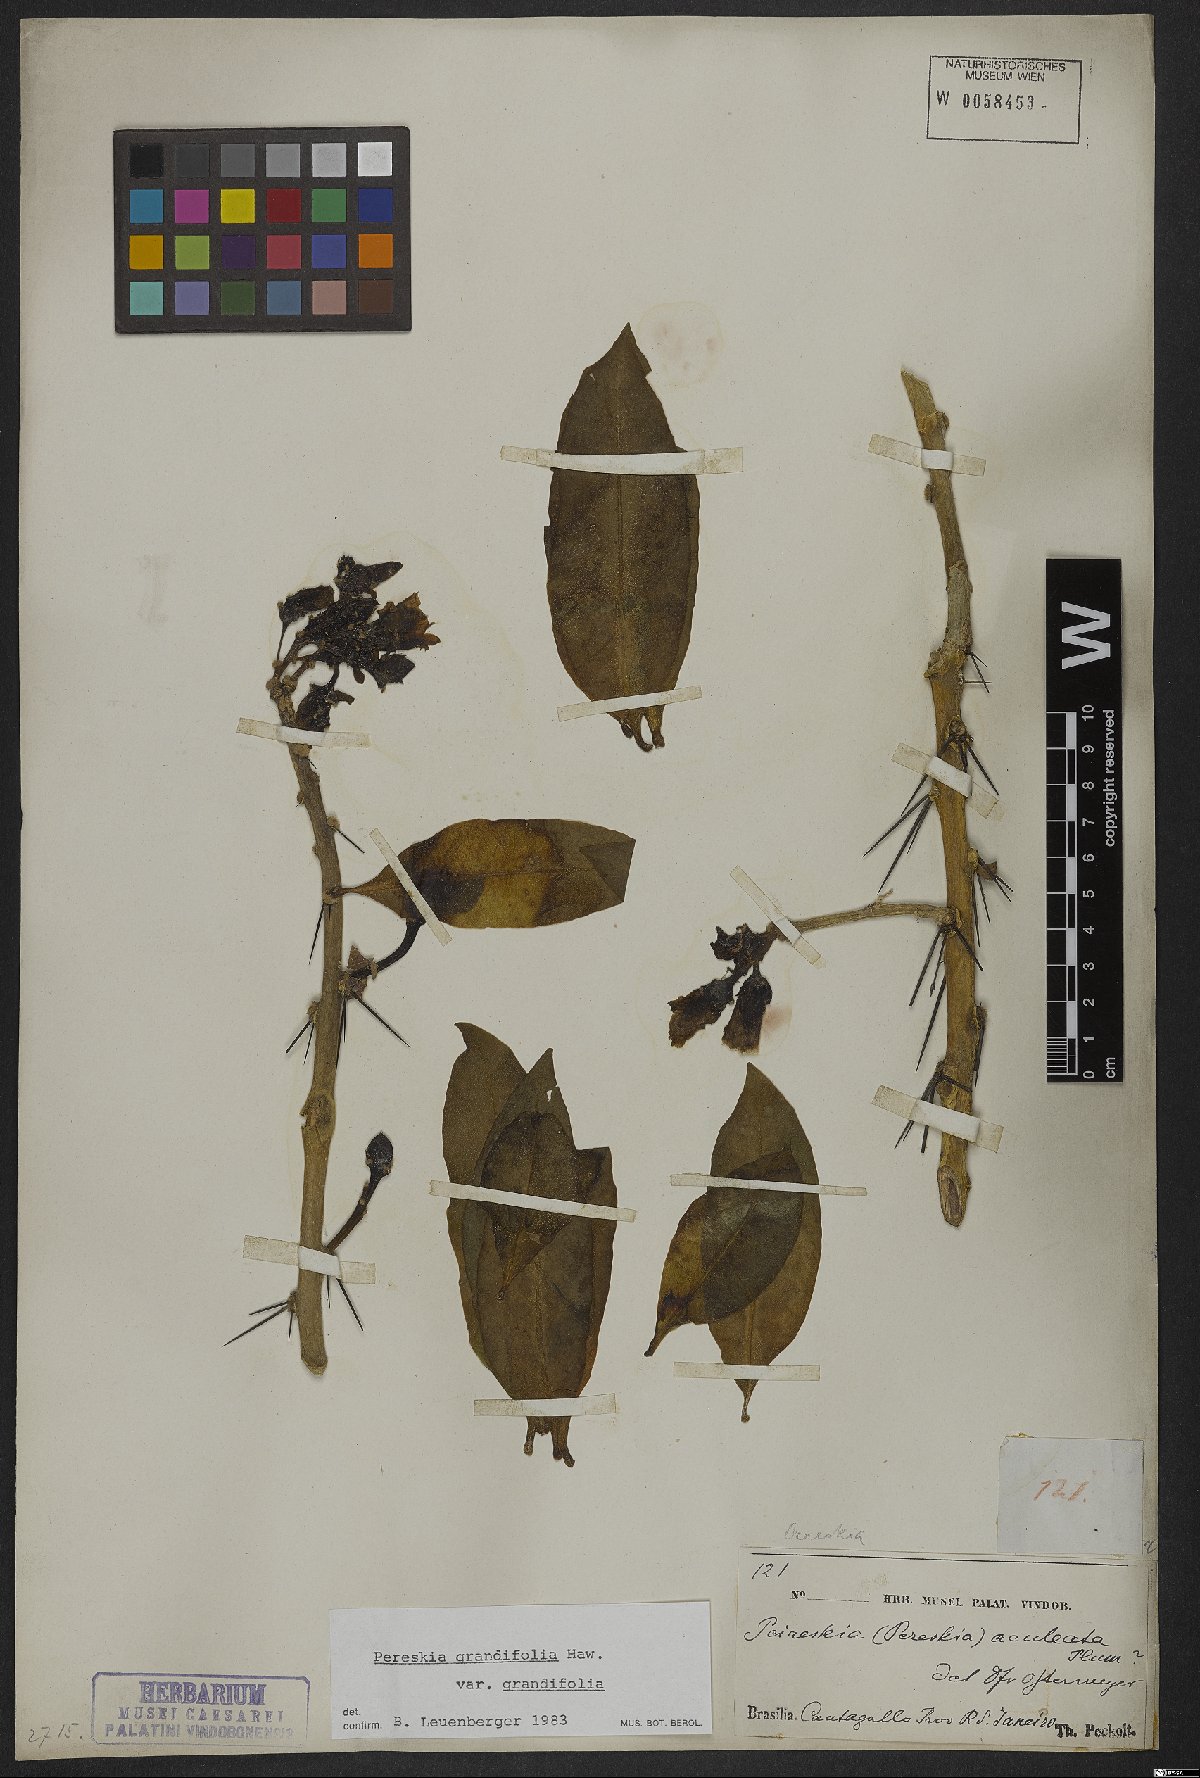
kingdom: Plantae
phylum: Tracheophyta
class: Magnoliopsida
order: Caryophyllales
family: Cactaceae
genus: Pereskia
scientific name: Pereskia grandifolia
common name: Rose cactus
